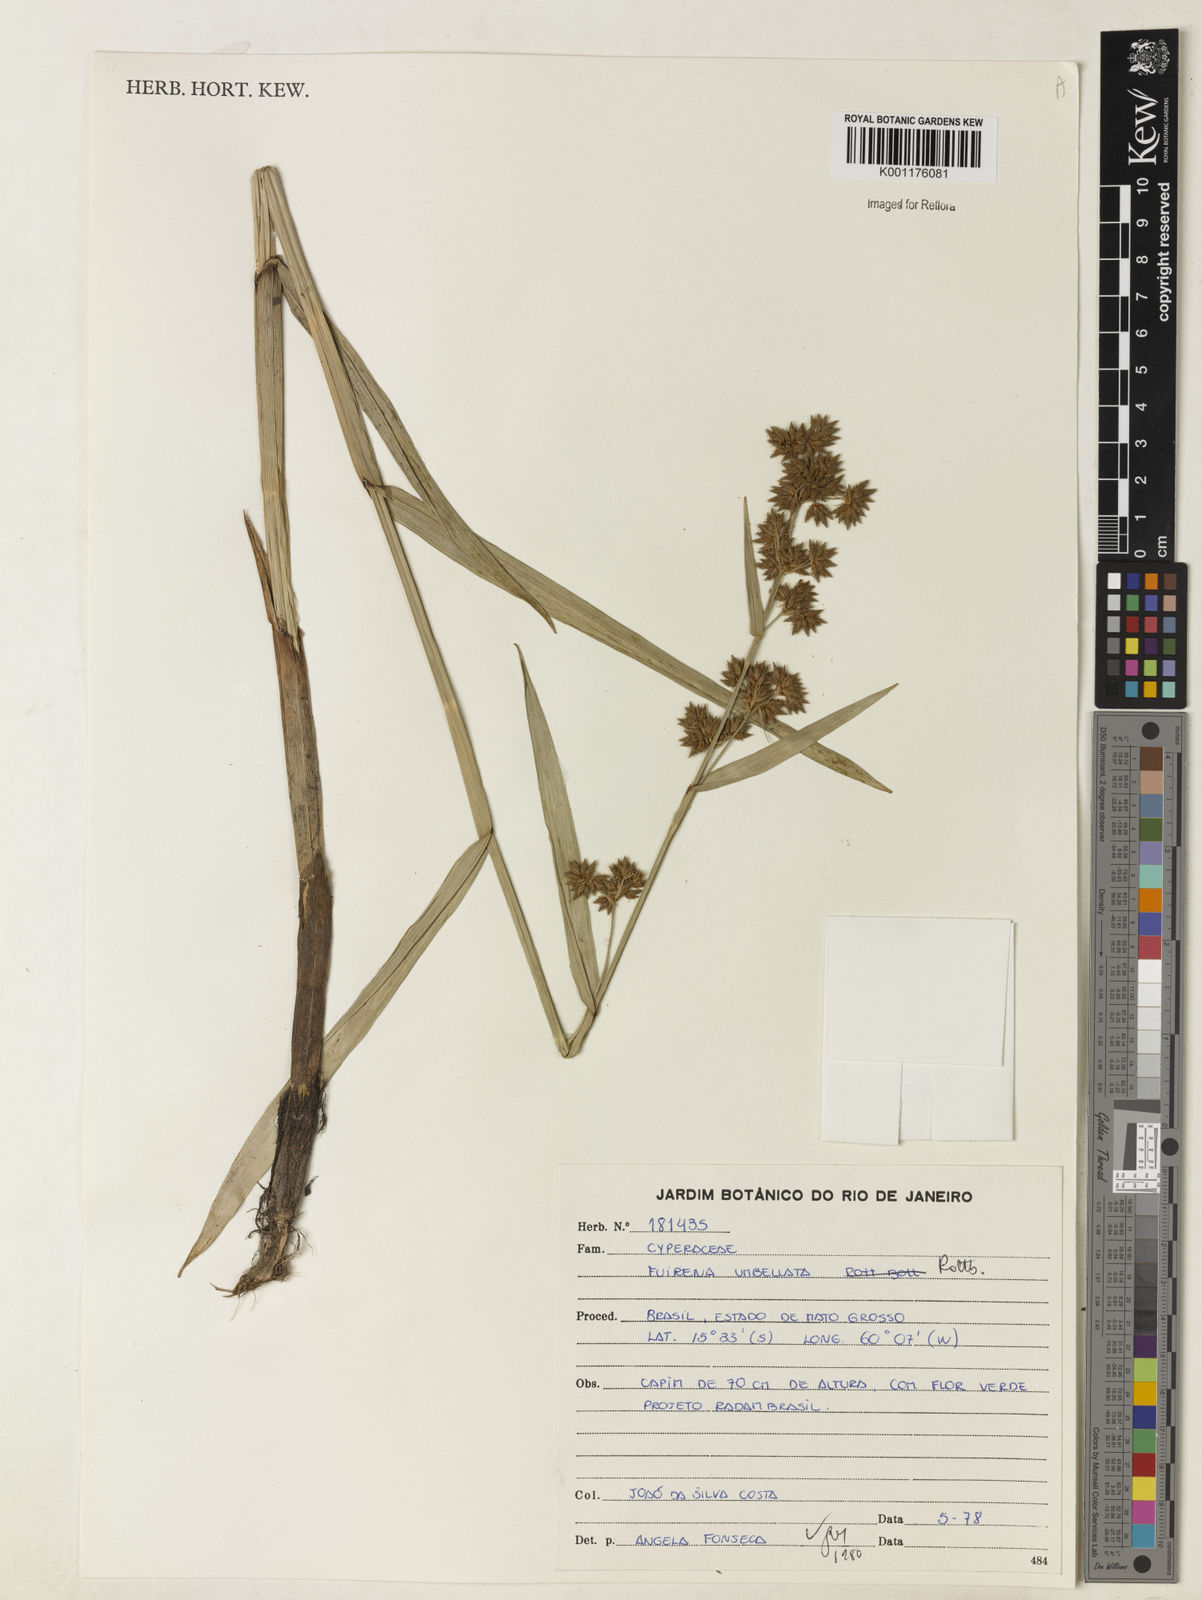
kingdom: Plantae
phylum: Tracheophyta
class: Liliopsida
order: Poales
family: Cyperaceae
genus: Fuirena
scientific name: Fuirena umbellata
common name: Yefen
